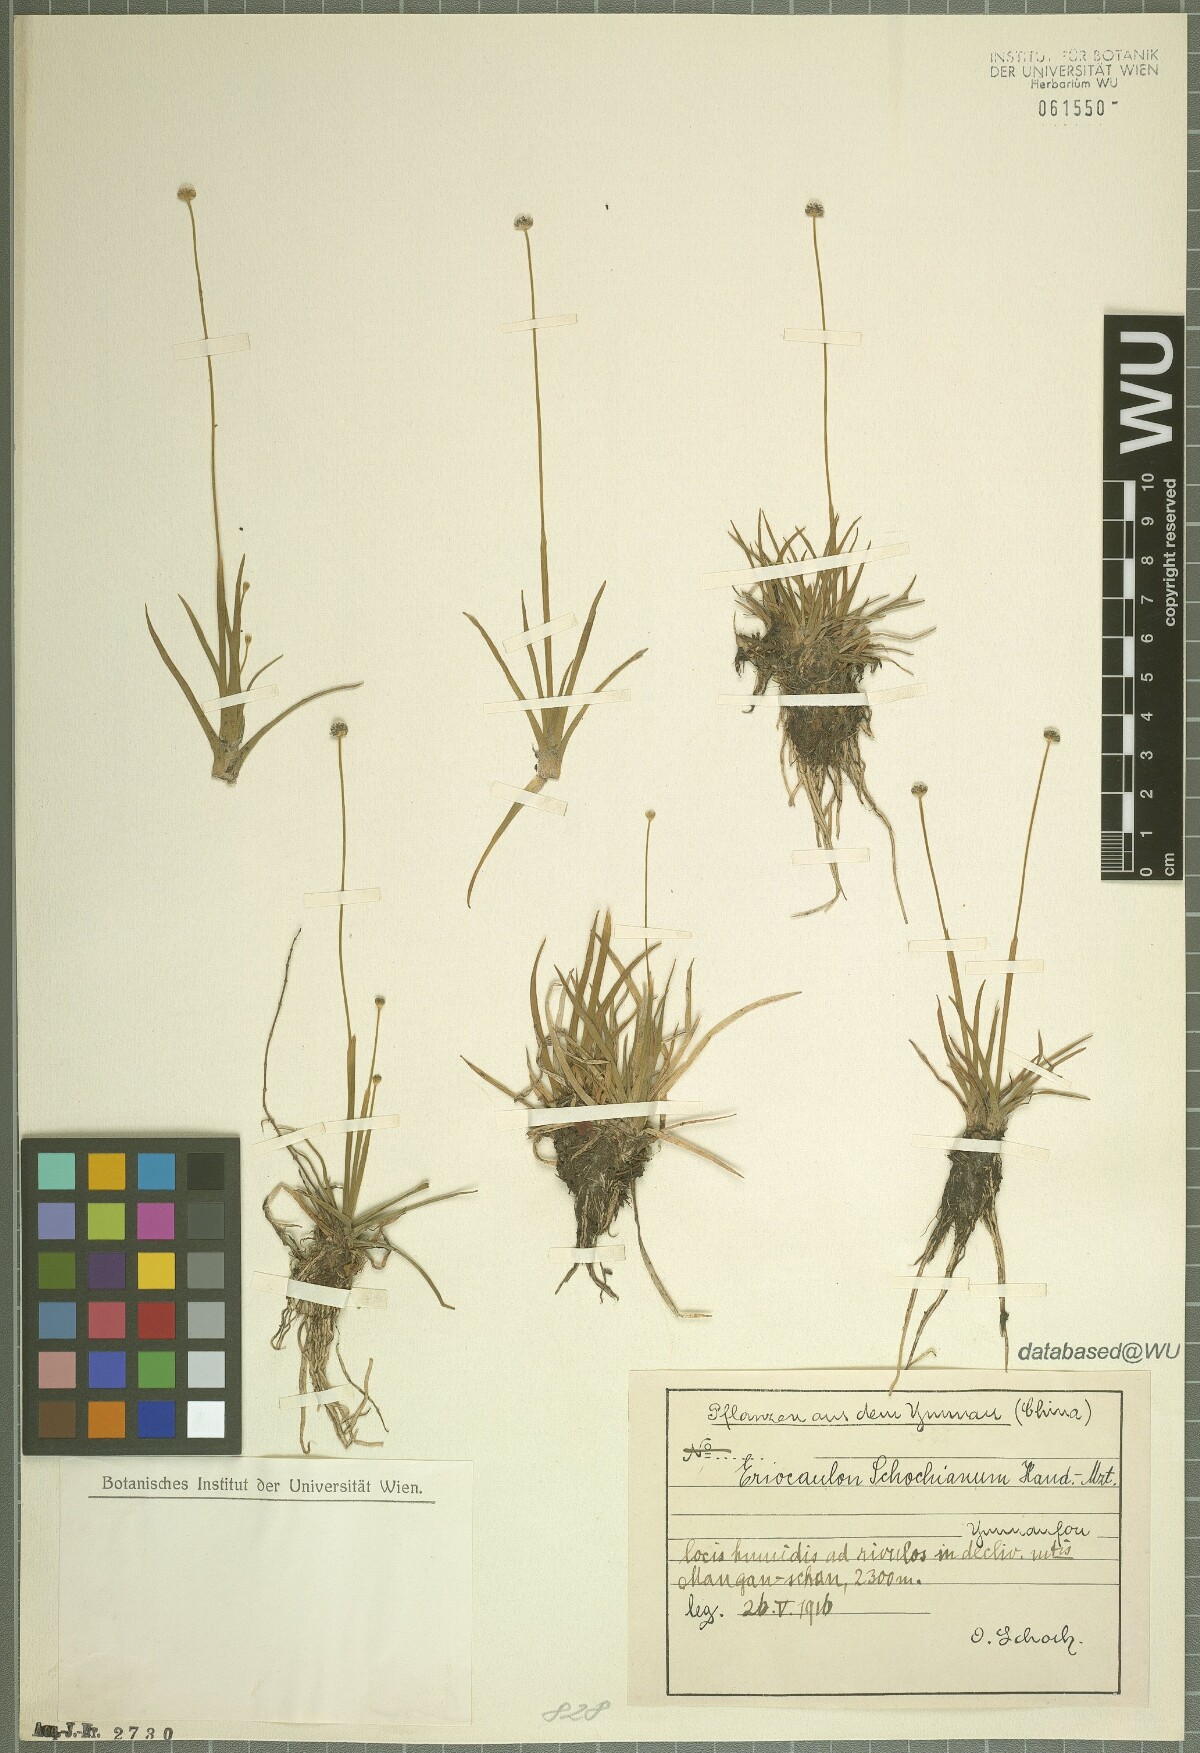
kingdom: Plantae
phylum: Tracheophyta
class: Liliopsida
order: Poales
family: Eriocaulaceae
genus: Eriocaulon
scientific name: Eriocaulon schochianum
